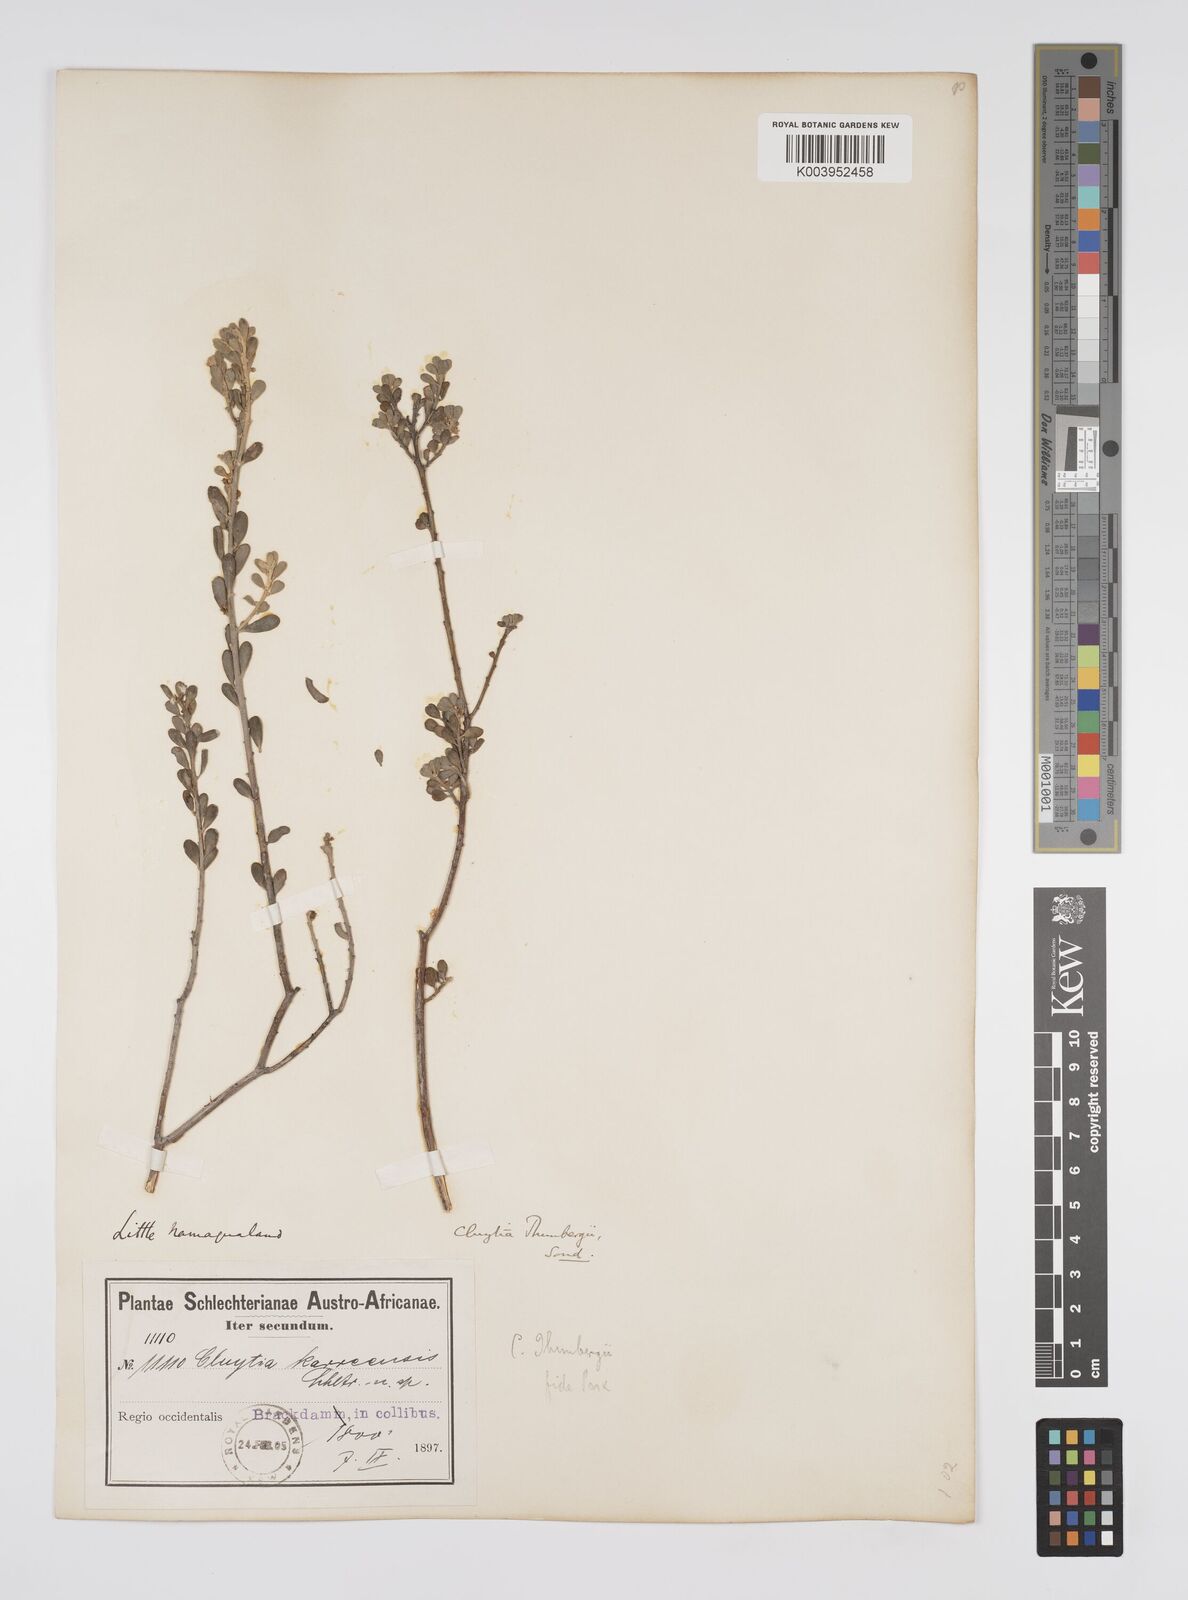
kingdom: Plantae
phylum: Tracheophyta
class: Magnoliopsida
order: Malpighiales
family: Peraceae
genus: Clutia
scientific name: Clutia thunbergii
